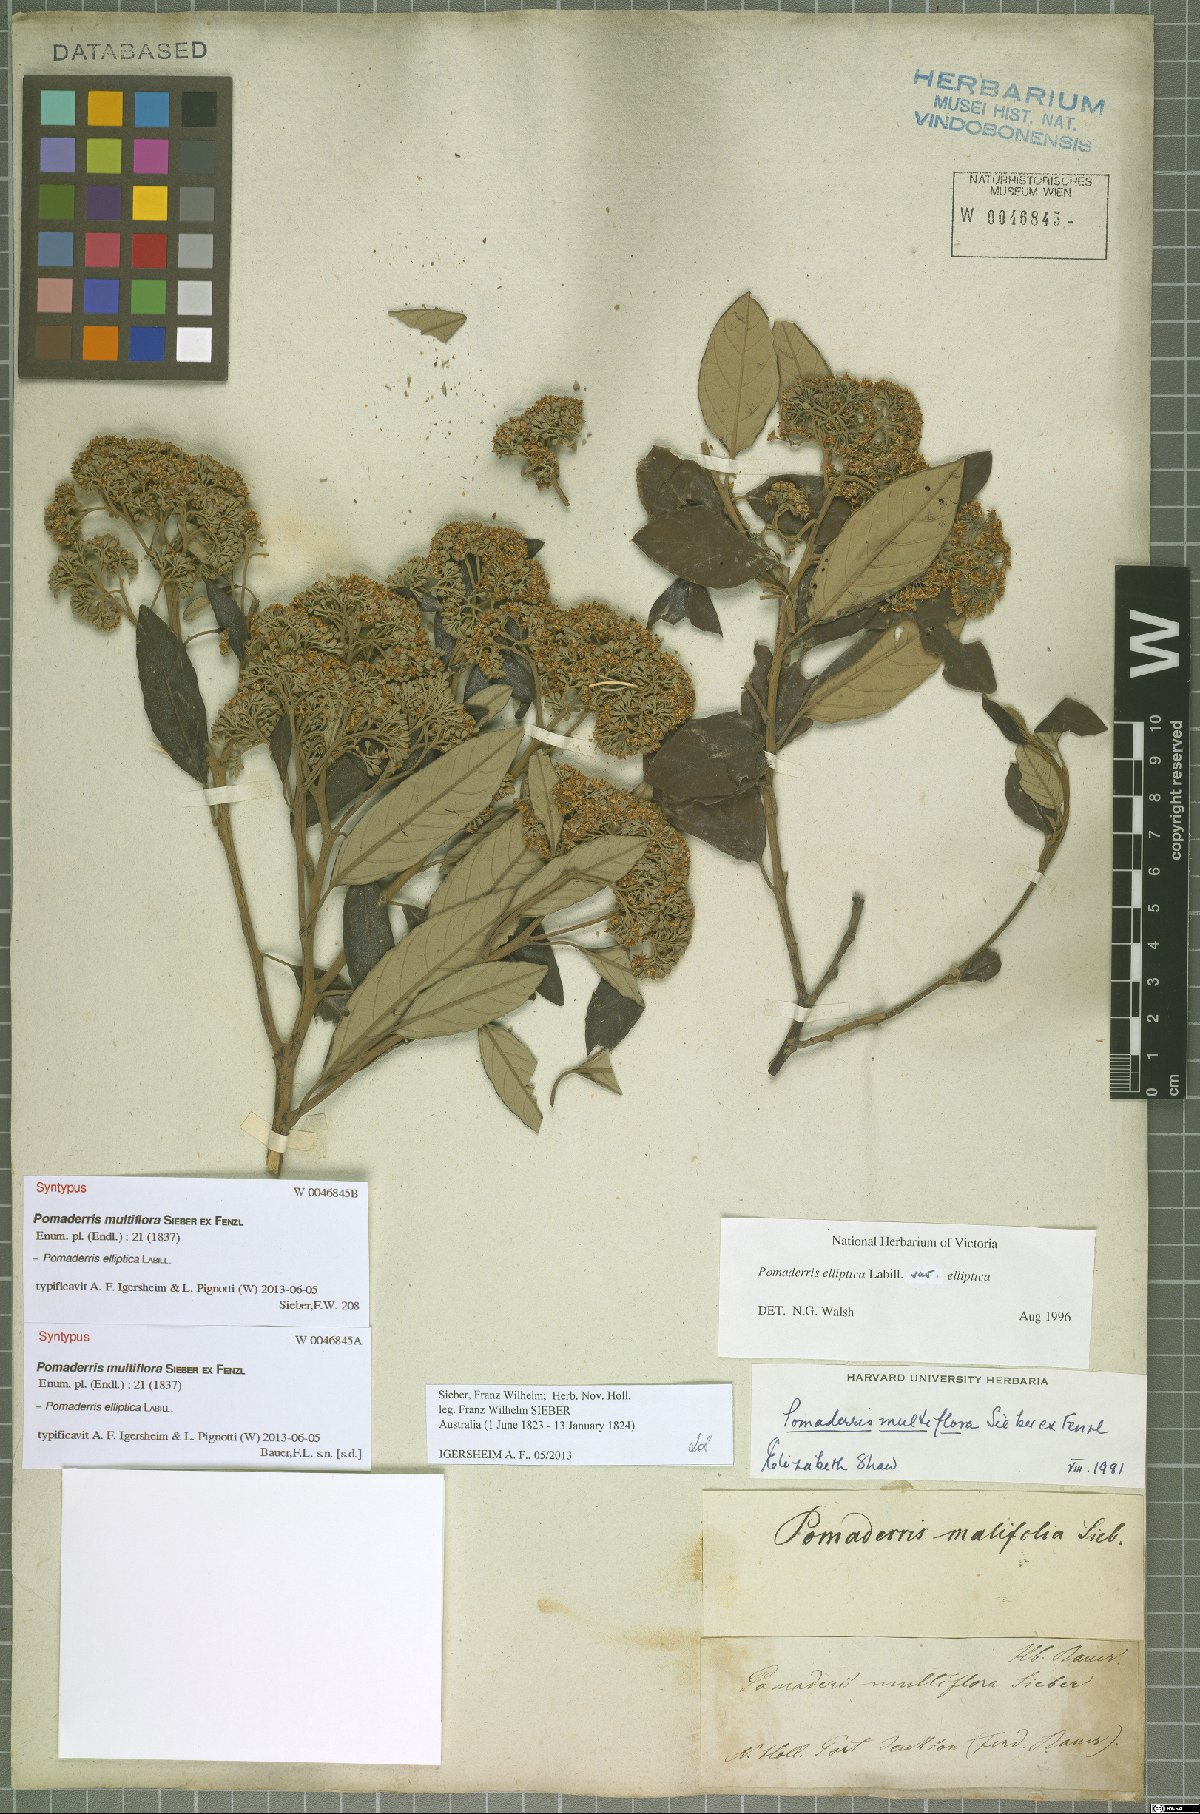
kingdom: Plantae
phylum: Tracheophyta
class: Magnoliopsida
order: Rosales
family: Rhamnaceae
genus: Pomaderris
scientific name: Pomaderris elliptica
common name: Yellow-dogwood
